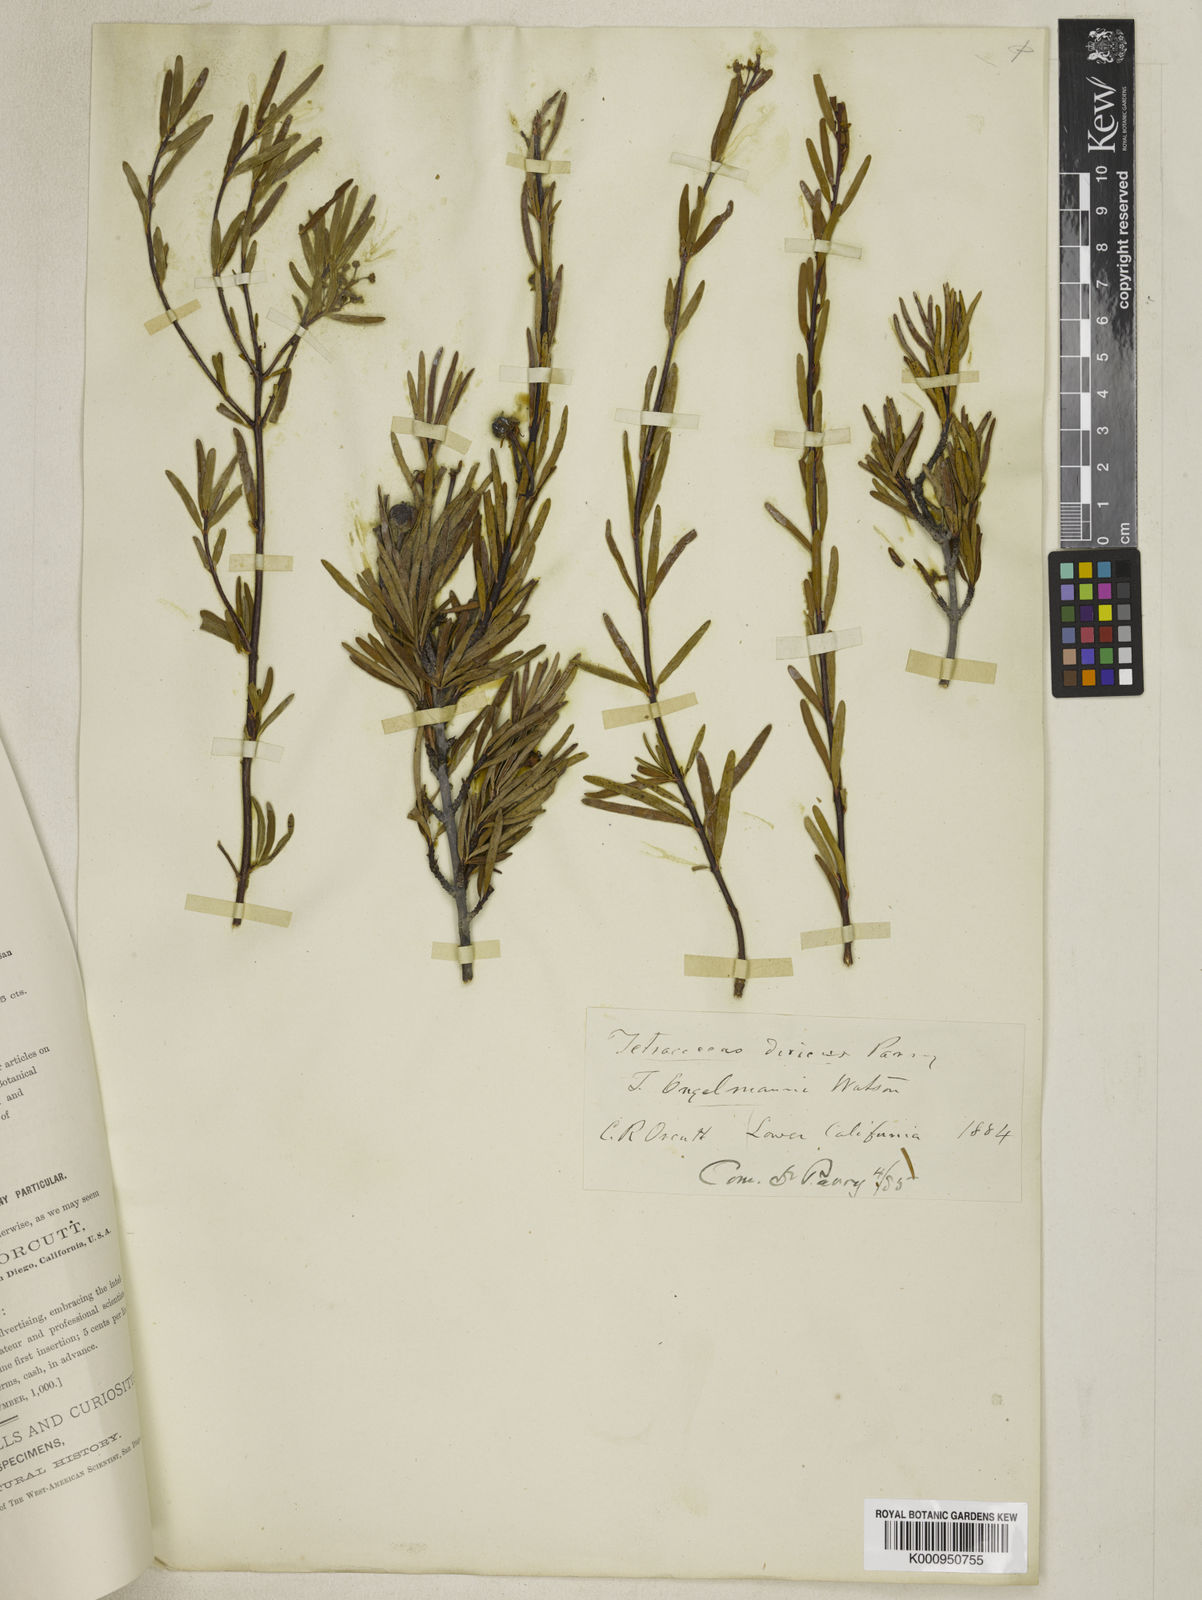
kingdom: Plantae
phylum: Tracheophyta
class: Magnoliopsida
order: Malpighiales
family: Picrodendraceae
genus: Tetracoccus
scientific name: Tetracoccus dioicus
